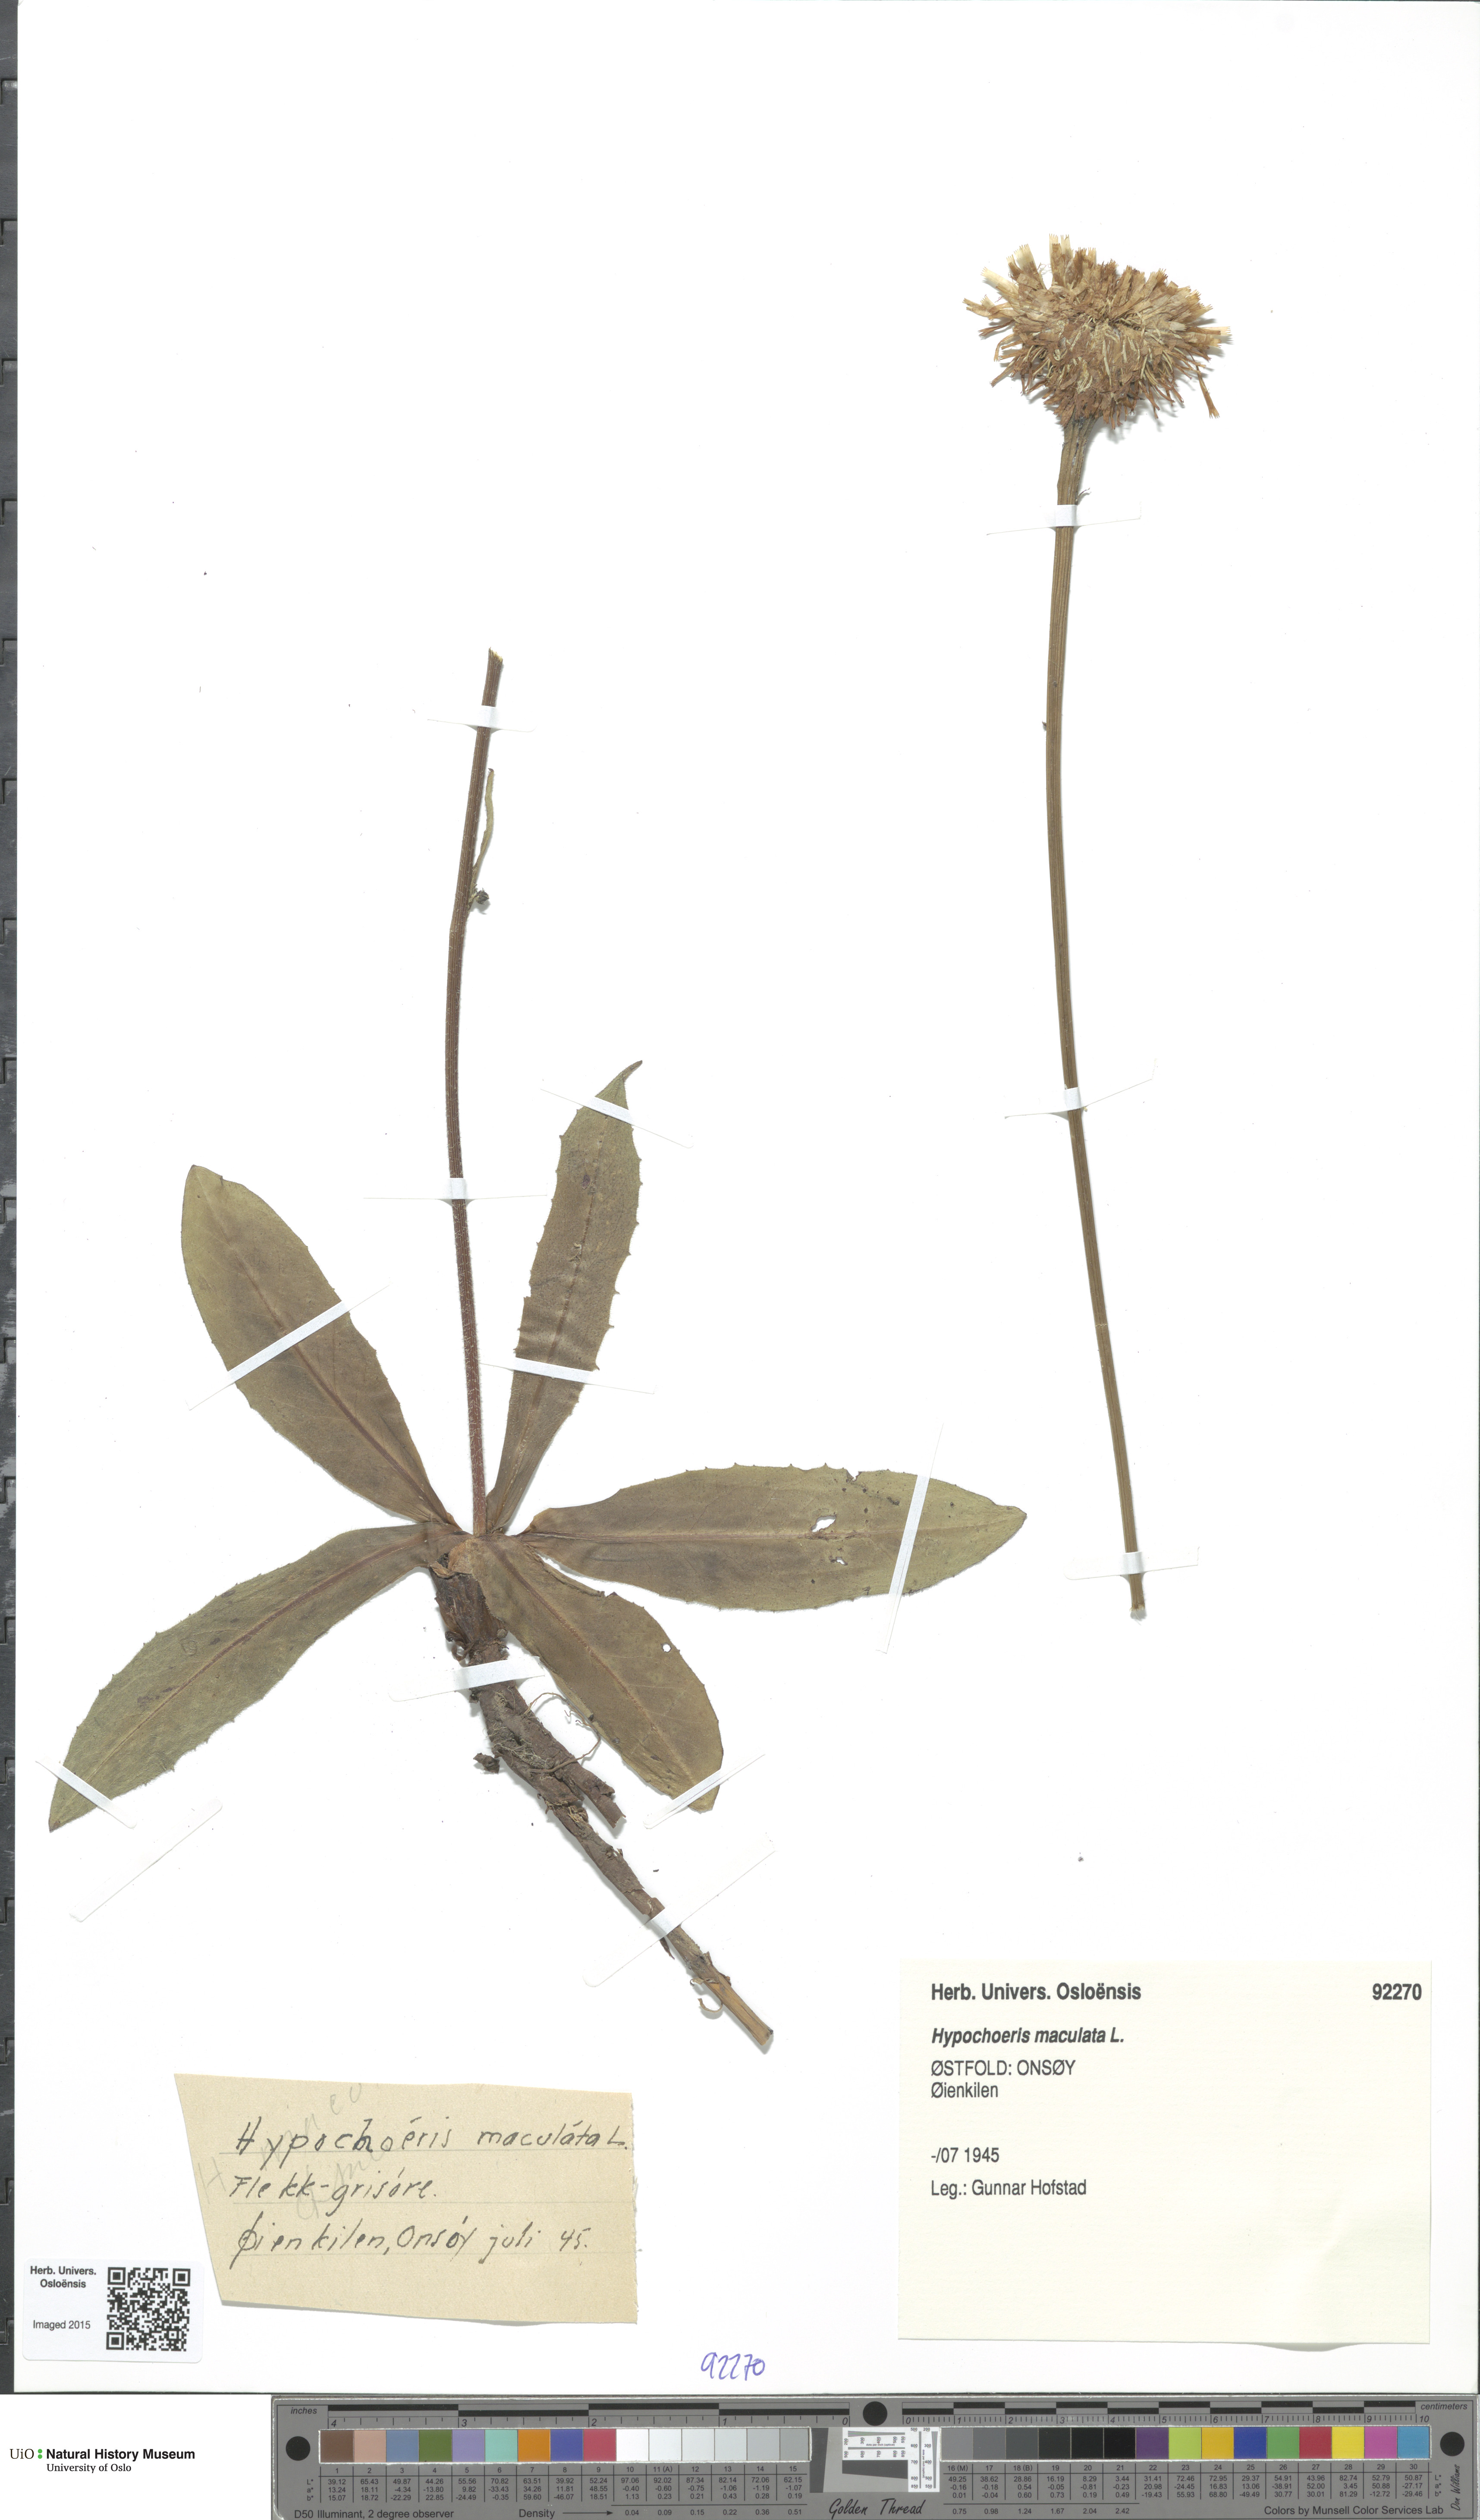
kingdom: Plantae
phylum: Tracheophyta
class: Magnoliopsida
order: Asterales
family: Asteraceae
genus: Trommsdorffia
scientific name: Trommsdorffia maculata
